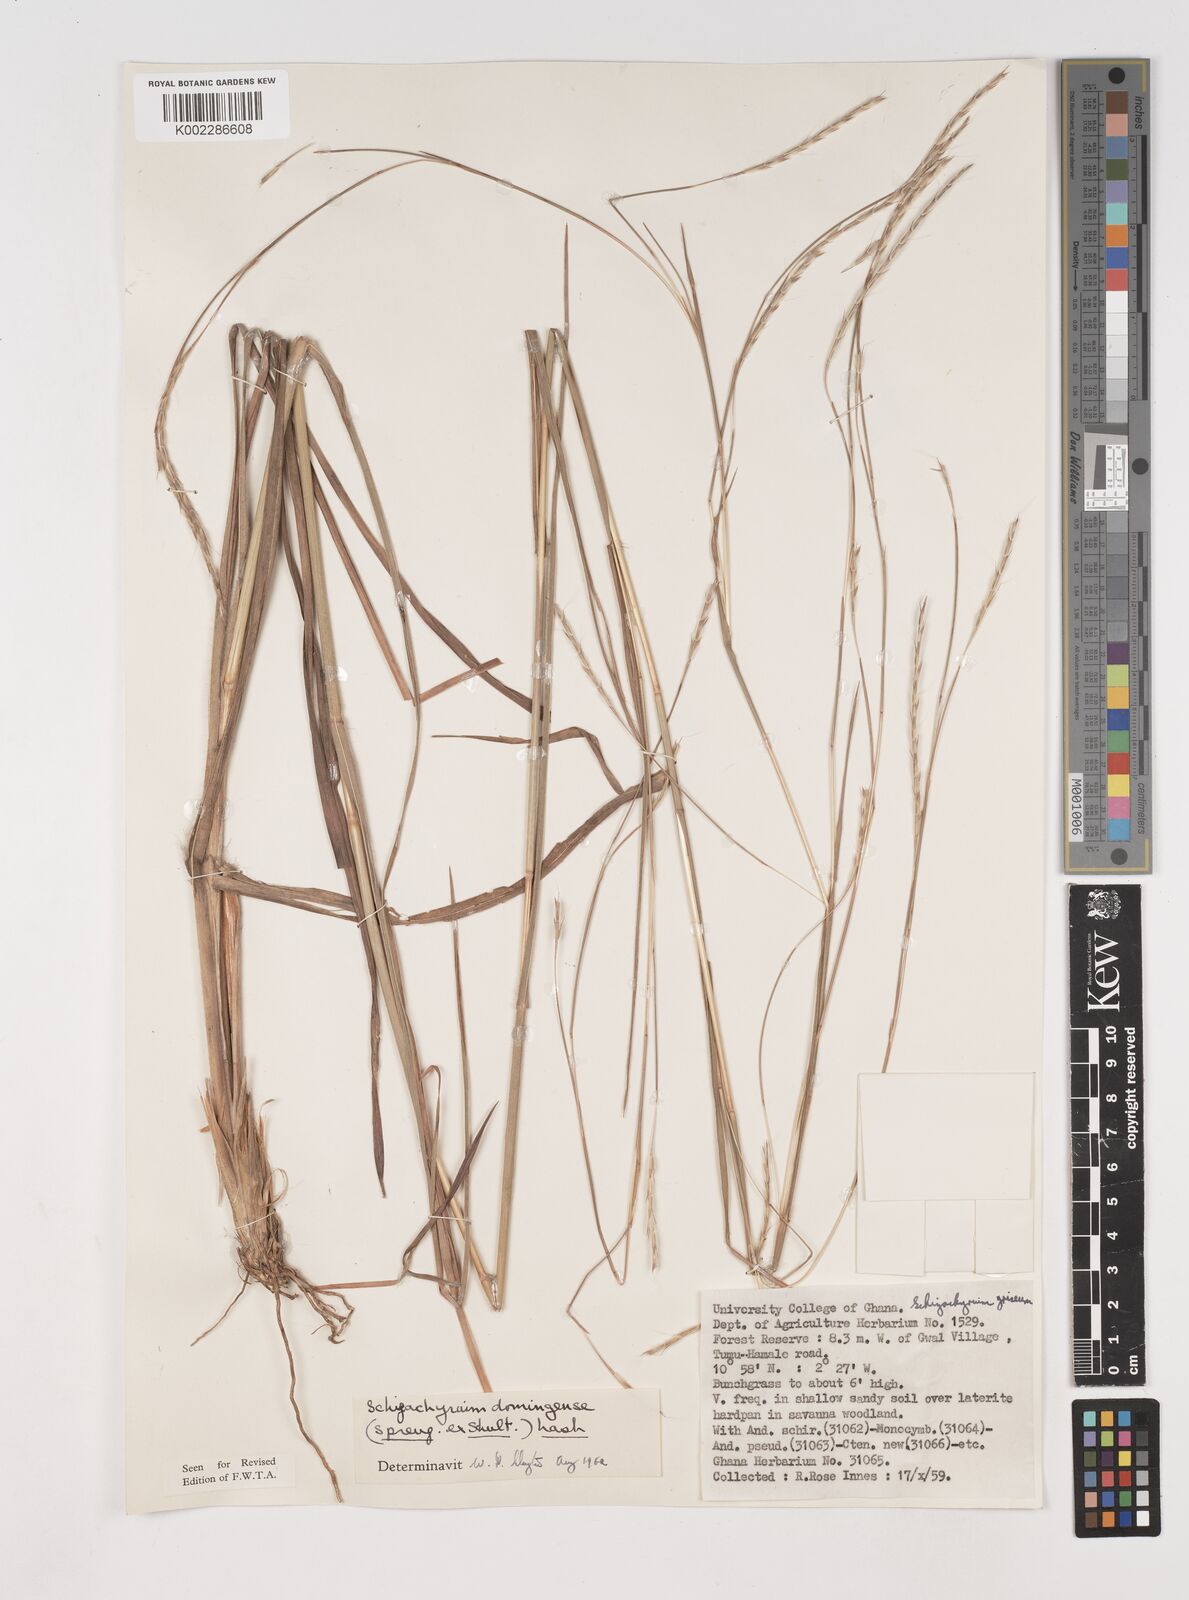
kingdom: Plantae
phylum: Tracheophyta
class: Liliopsida
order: Poales
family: Poaceae
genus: Schizachyrium
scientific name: Schizachyrium sanguineum
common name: Crimson bluestem
